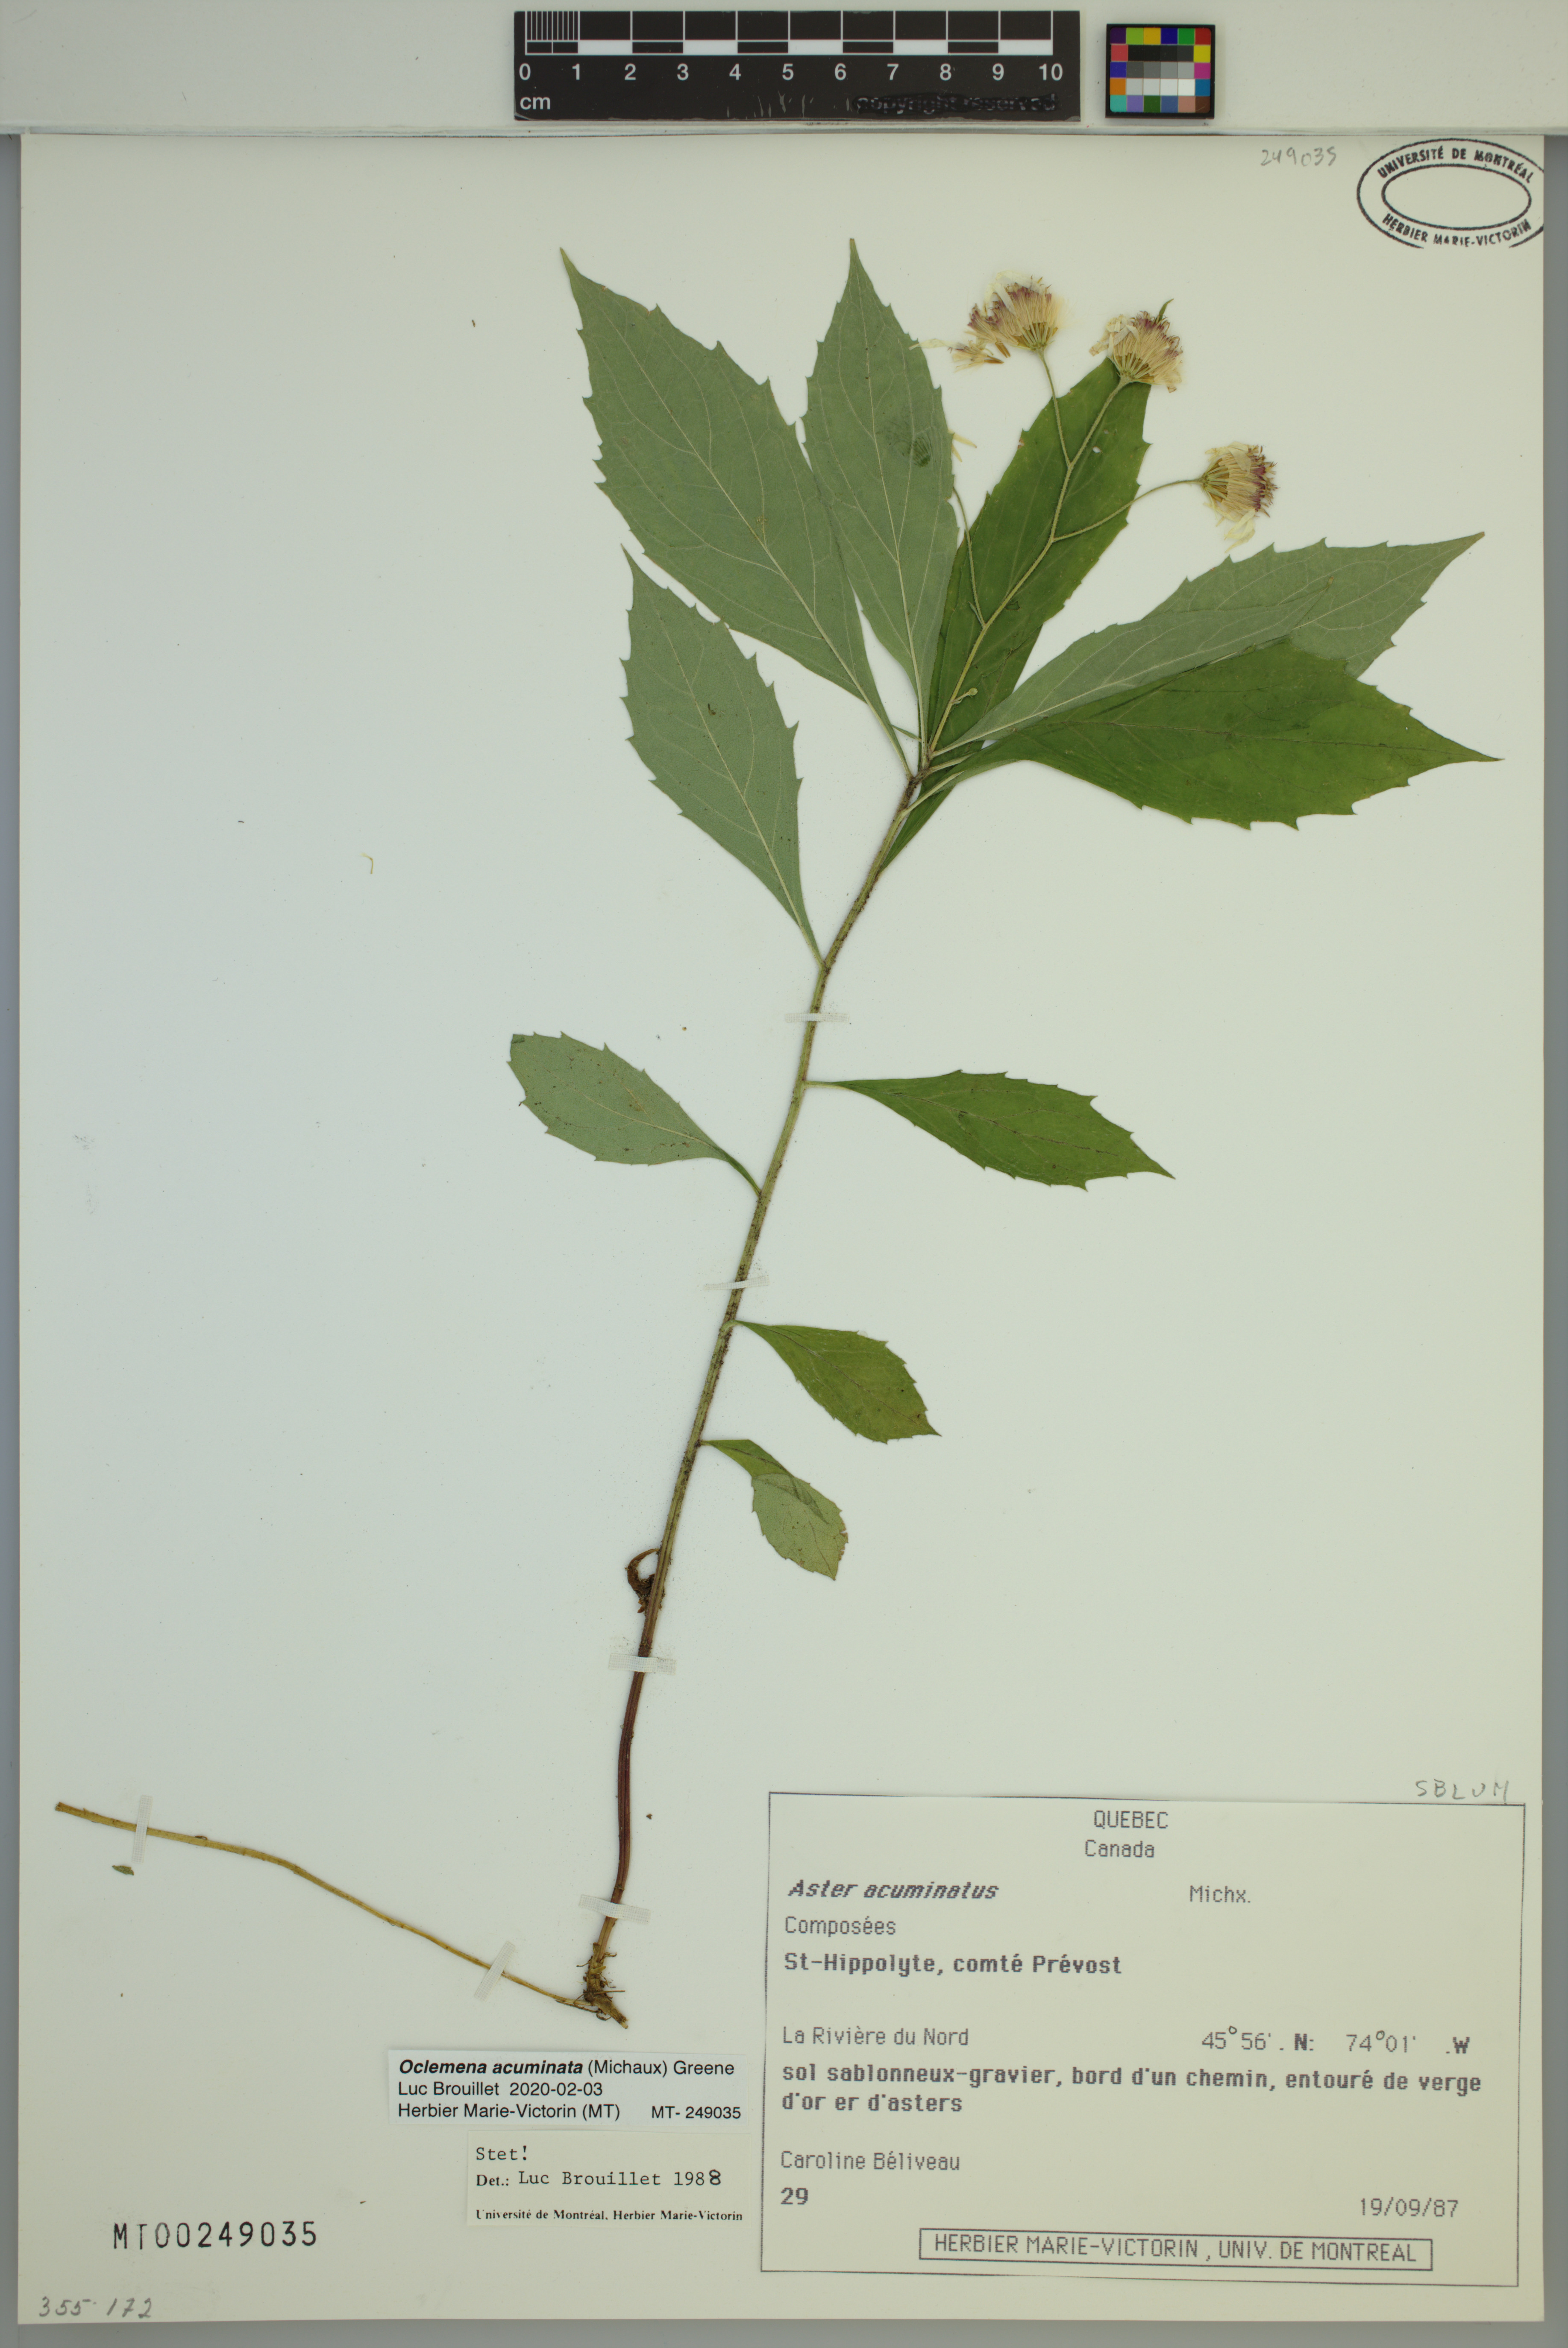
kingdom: Plantae
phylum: Tracheophyta
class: Magnoliopsida
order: Asterales
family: Asteraceae
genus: Oclemena
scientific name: Oclemena acuminata
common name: Mountain aster
